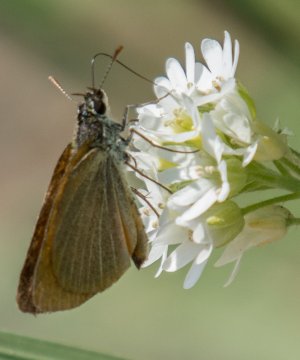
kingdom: Animalia
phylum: Arthropoda
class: Insecta
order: Lepidoptera
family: Hesperiidae
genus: Thymelicus
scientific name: Thymelicus lineola
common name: European Skipper
